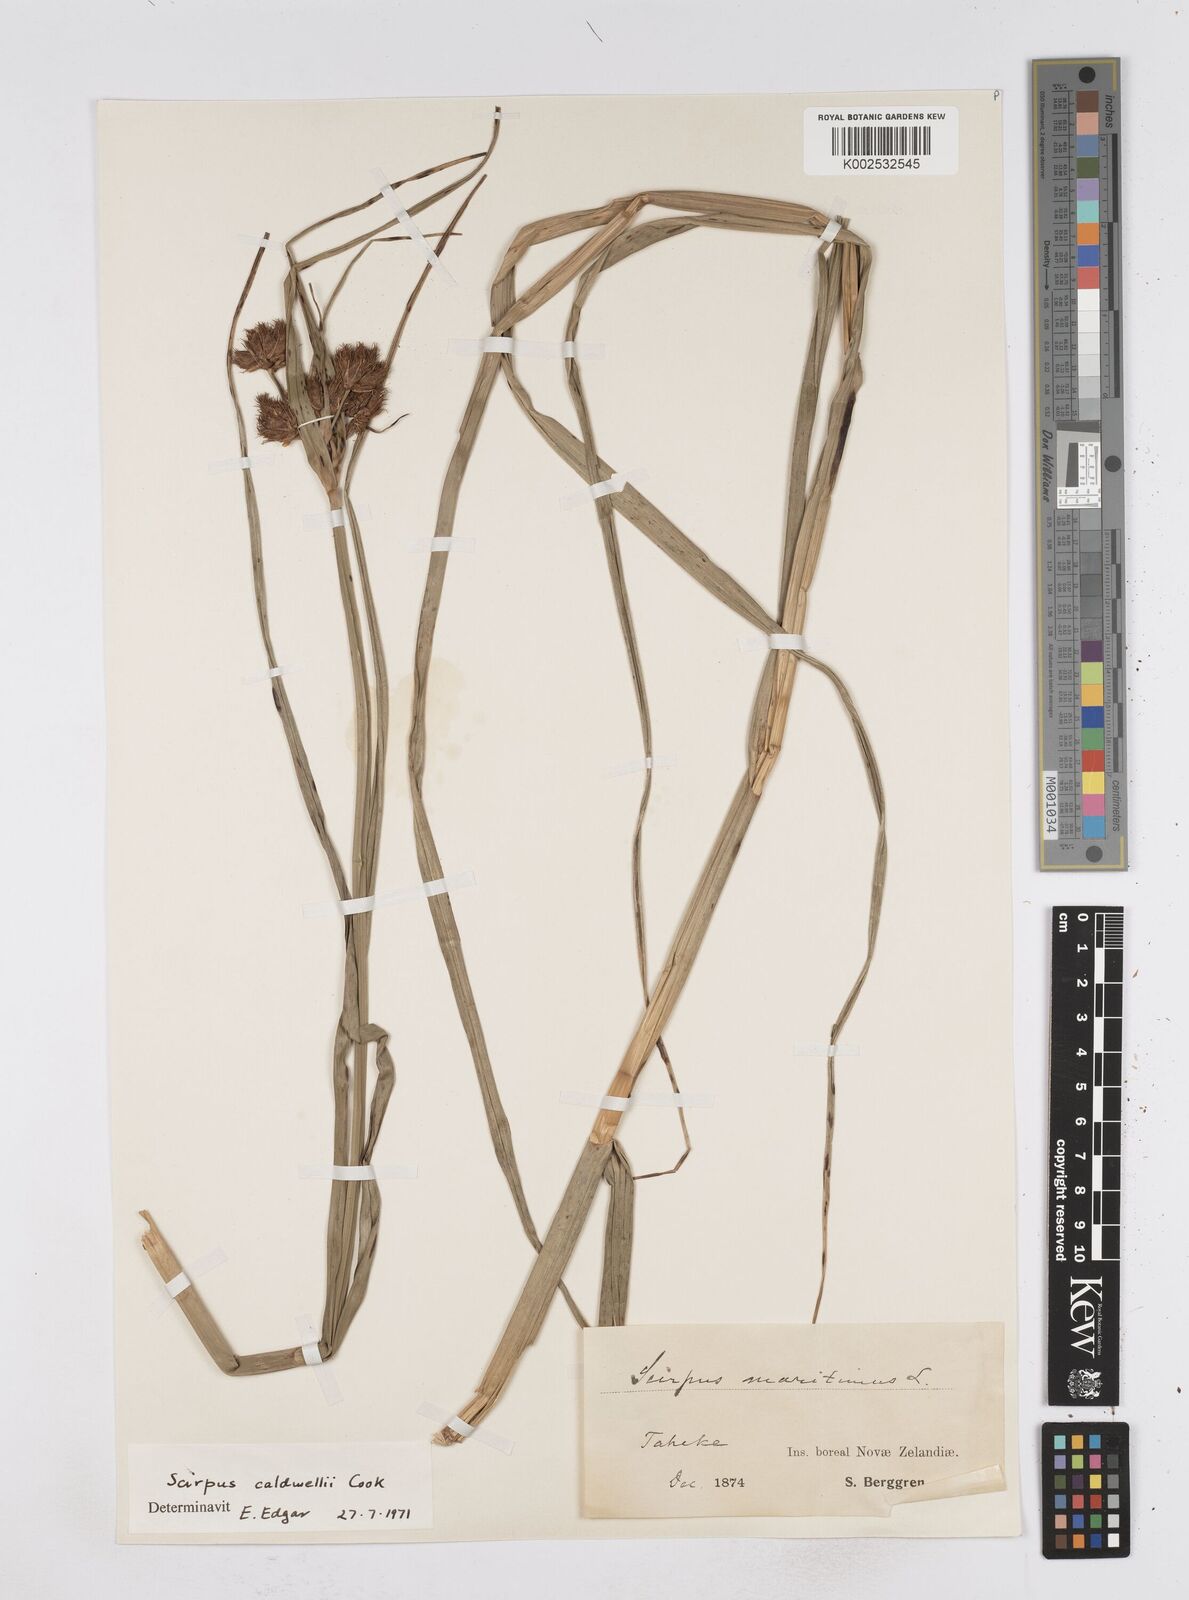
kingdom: Plantae
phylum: Tracheophyta
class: Liliopsida
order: Poales
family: Cyperaceae
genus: Bolboschoenus
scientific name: Bolboschoenus caldwellii
